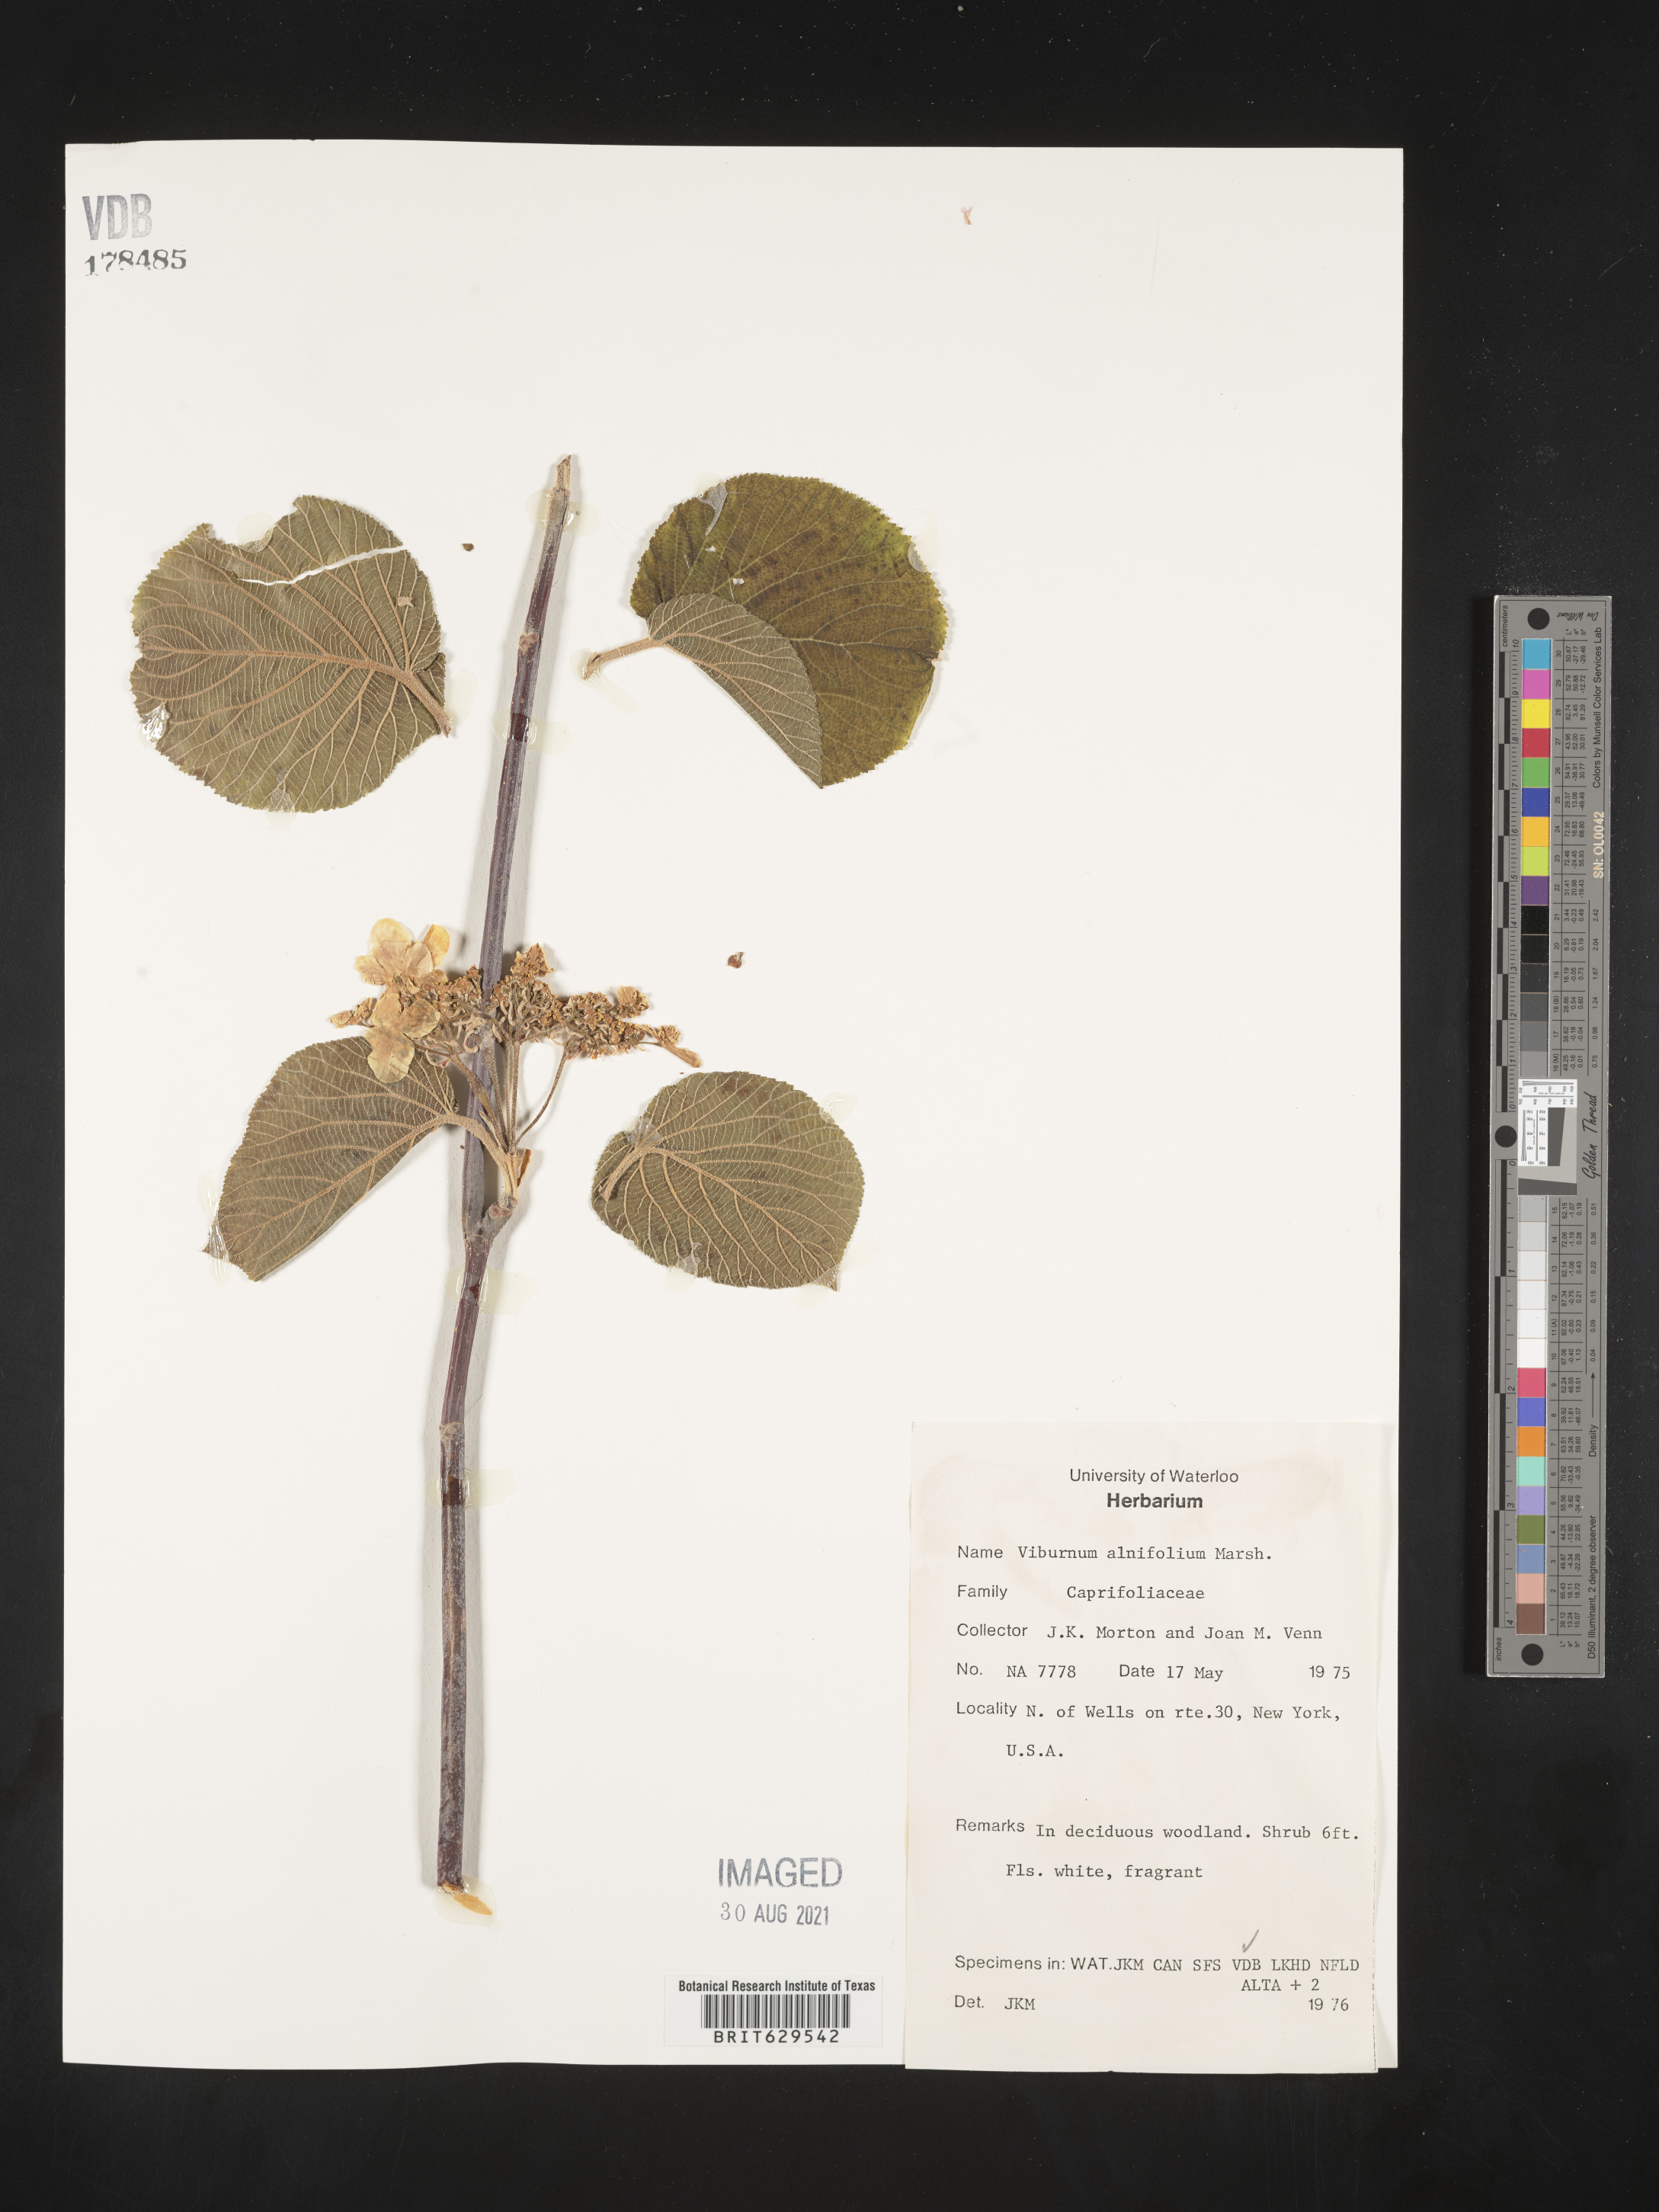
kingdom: Plantae
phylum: Tracheophyta
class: Magnoliopsida
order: Dipsacales
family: Viburnaceae
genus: Viburnum
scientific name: Viburnum lantanoides
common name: Hobblebush
